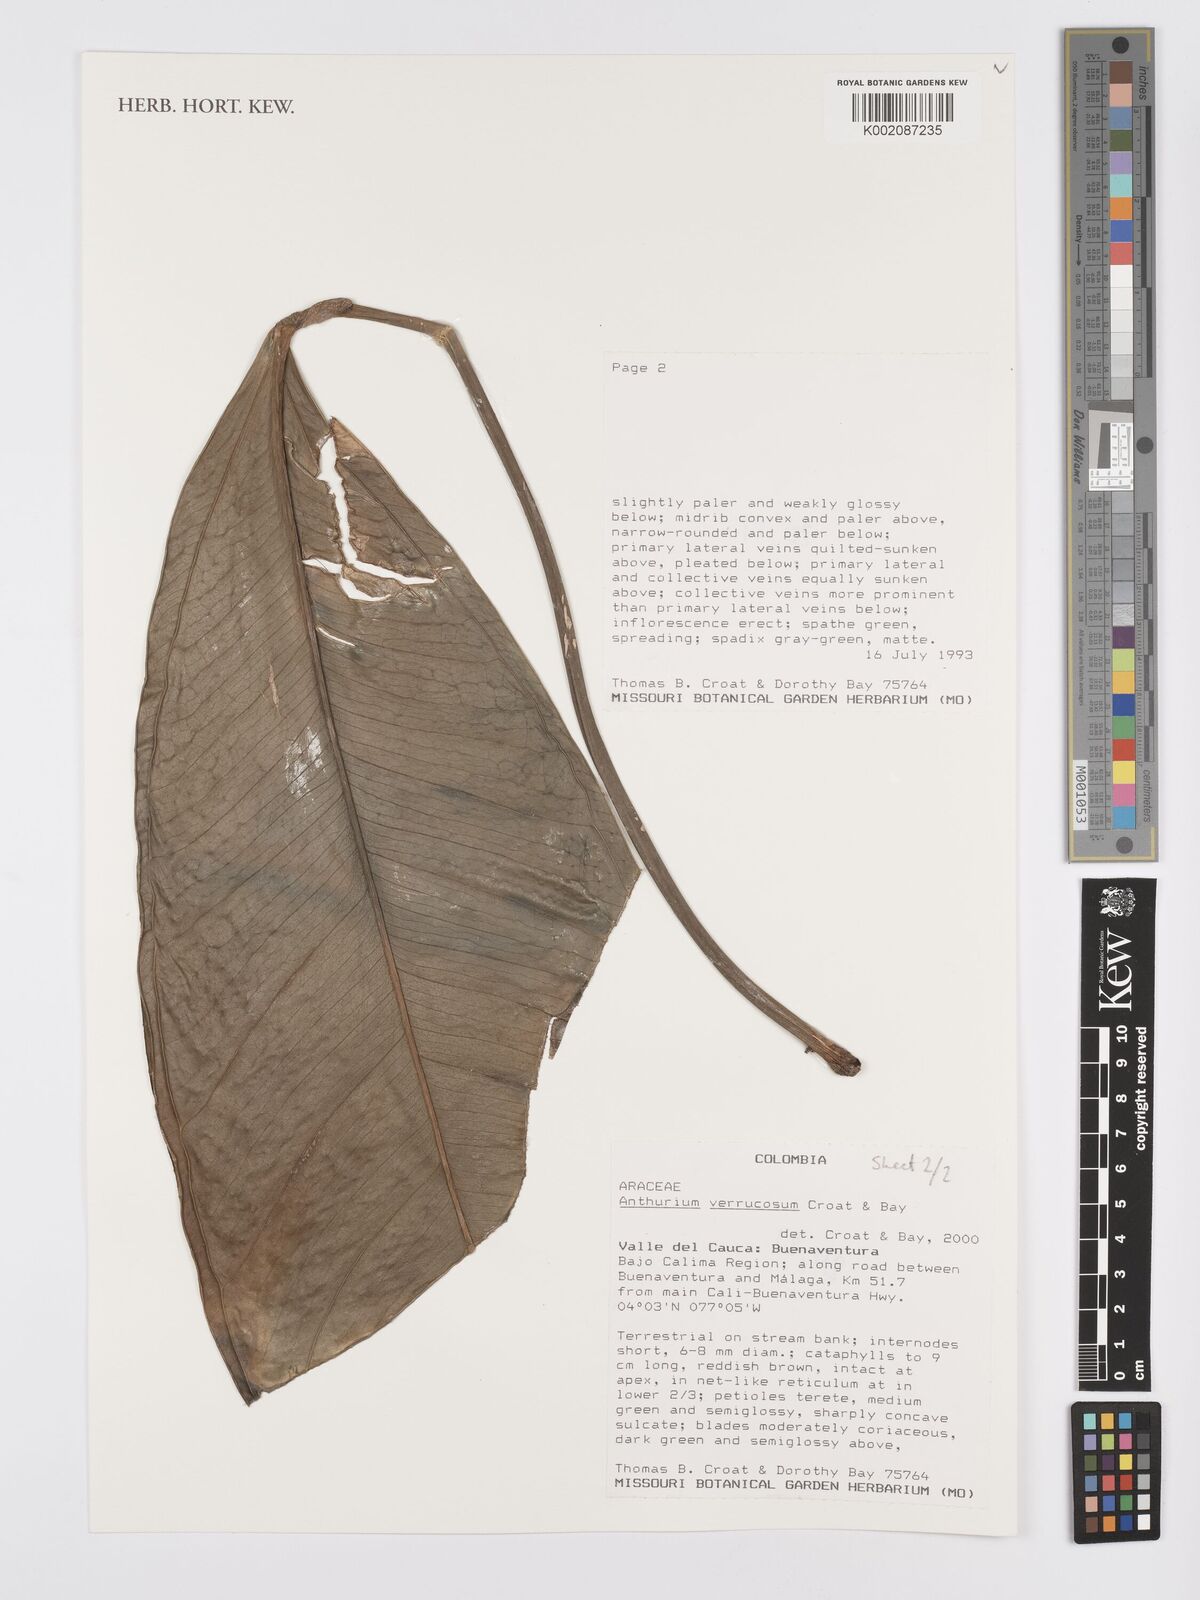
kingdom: Plantae
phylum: Tracheophyta
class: Liliopsida
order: Alismatales
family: Araceae
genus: Anthurium
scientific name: Anthurium verrucosum
